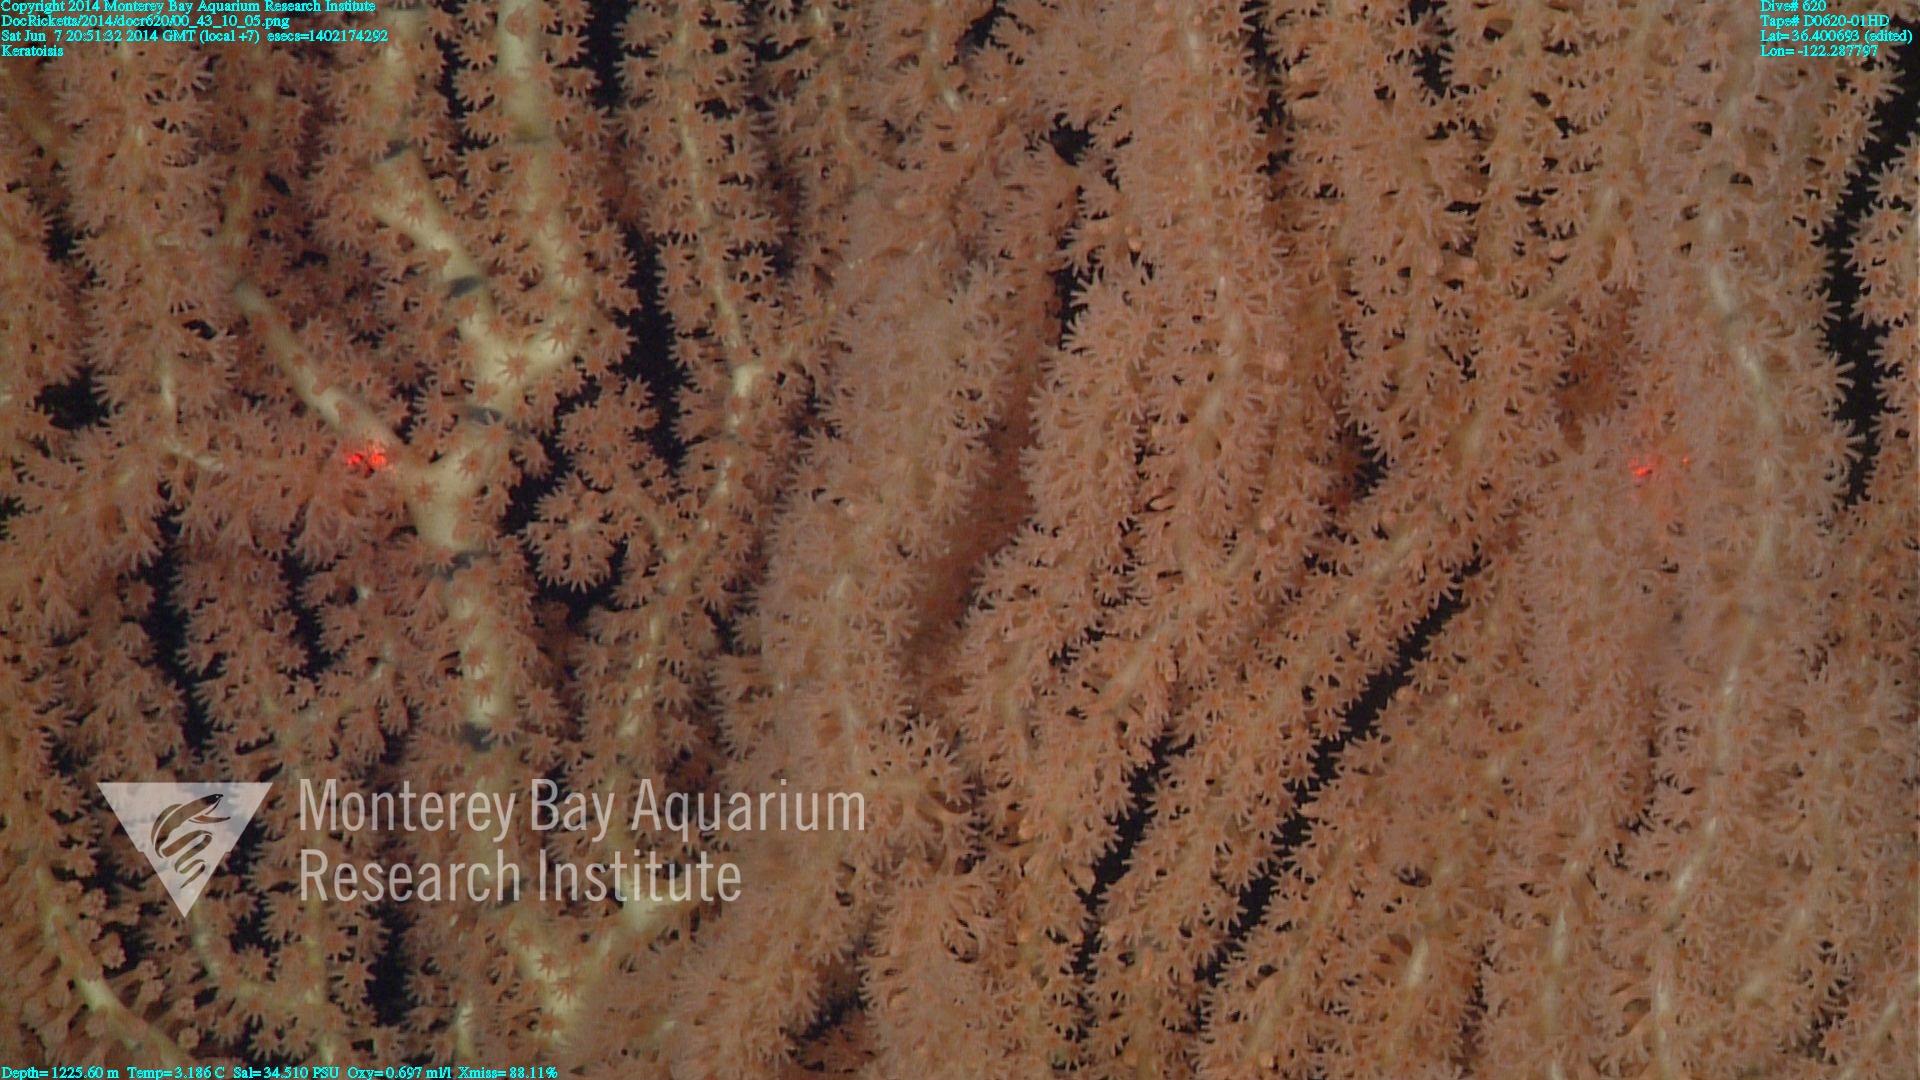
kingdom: Animalia
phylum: Cnidaria
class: Anthozoa
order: Scleralcyonacea
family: Keratoisididae
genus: Keratoisis
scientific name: Keratoisis
